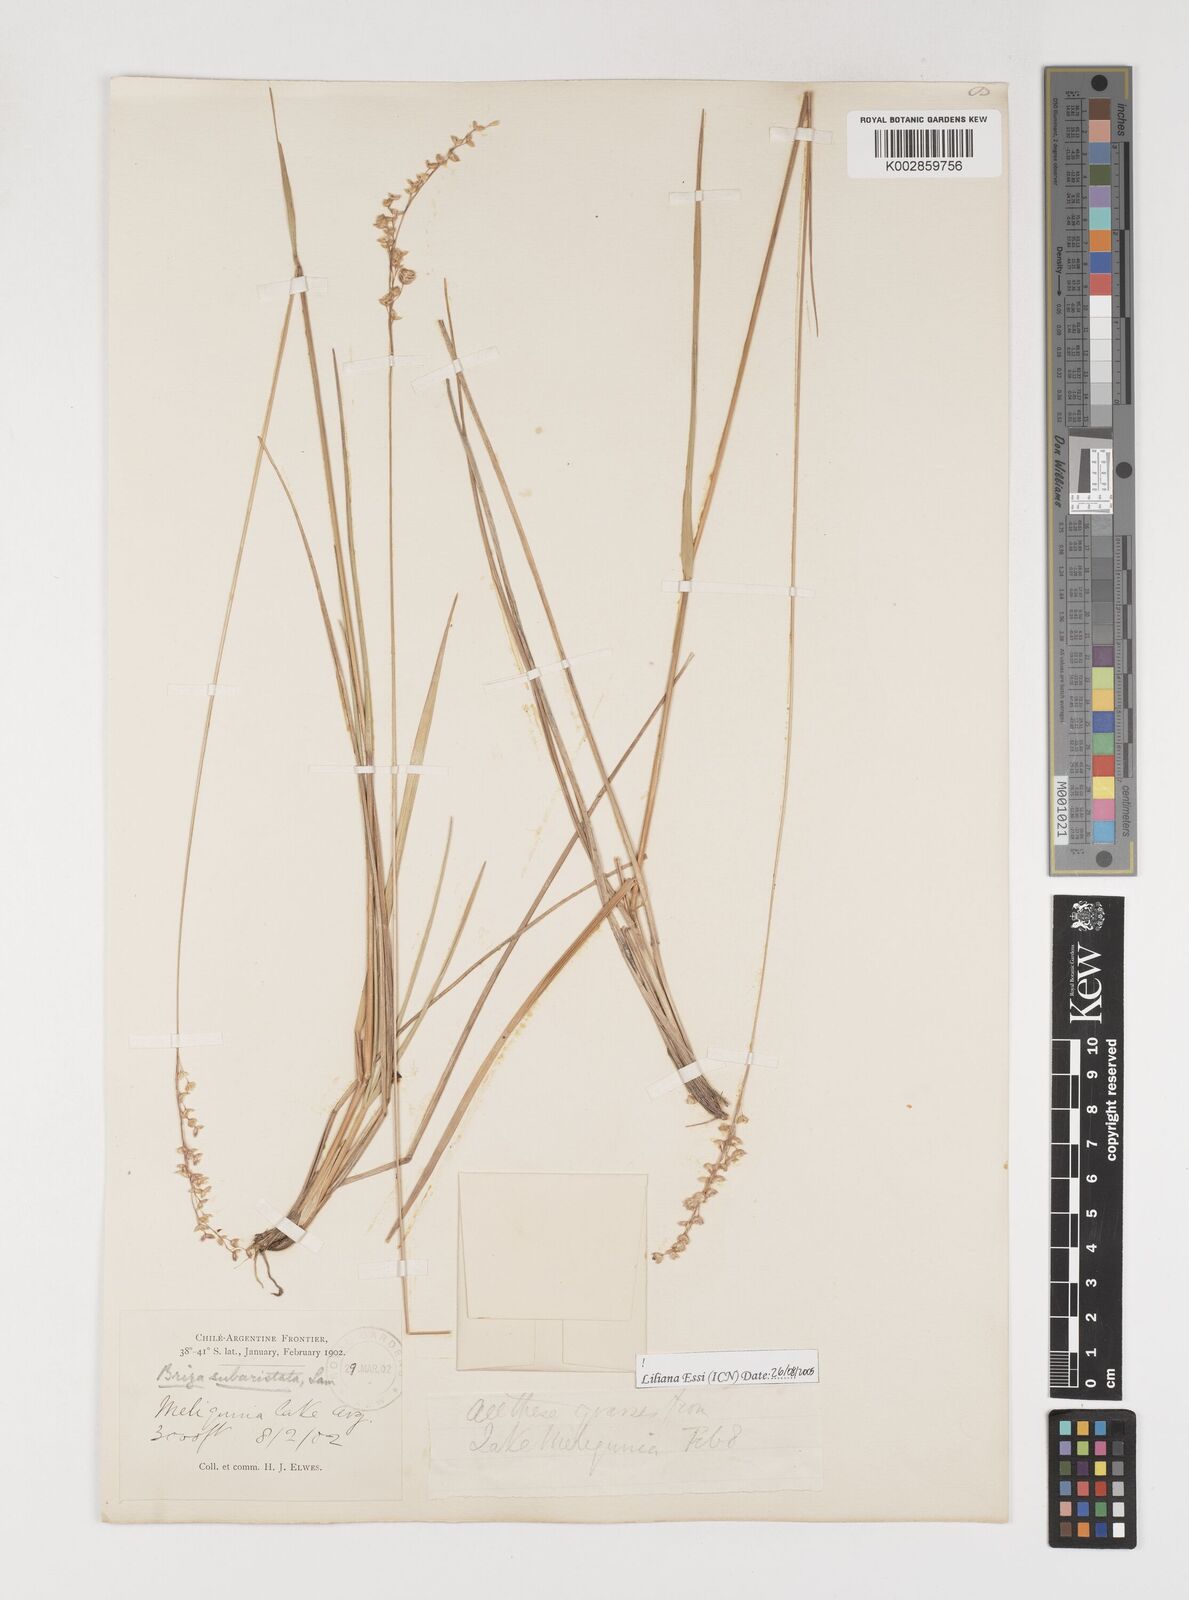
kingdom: Plantae
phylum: Tracheophyta
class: Liliopsida
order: Poales
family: Poaceae
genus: Chascolytrum
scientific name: Chascolytrum subaristatum
